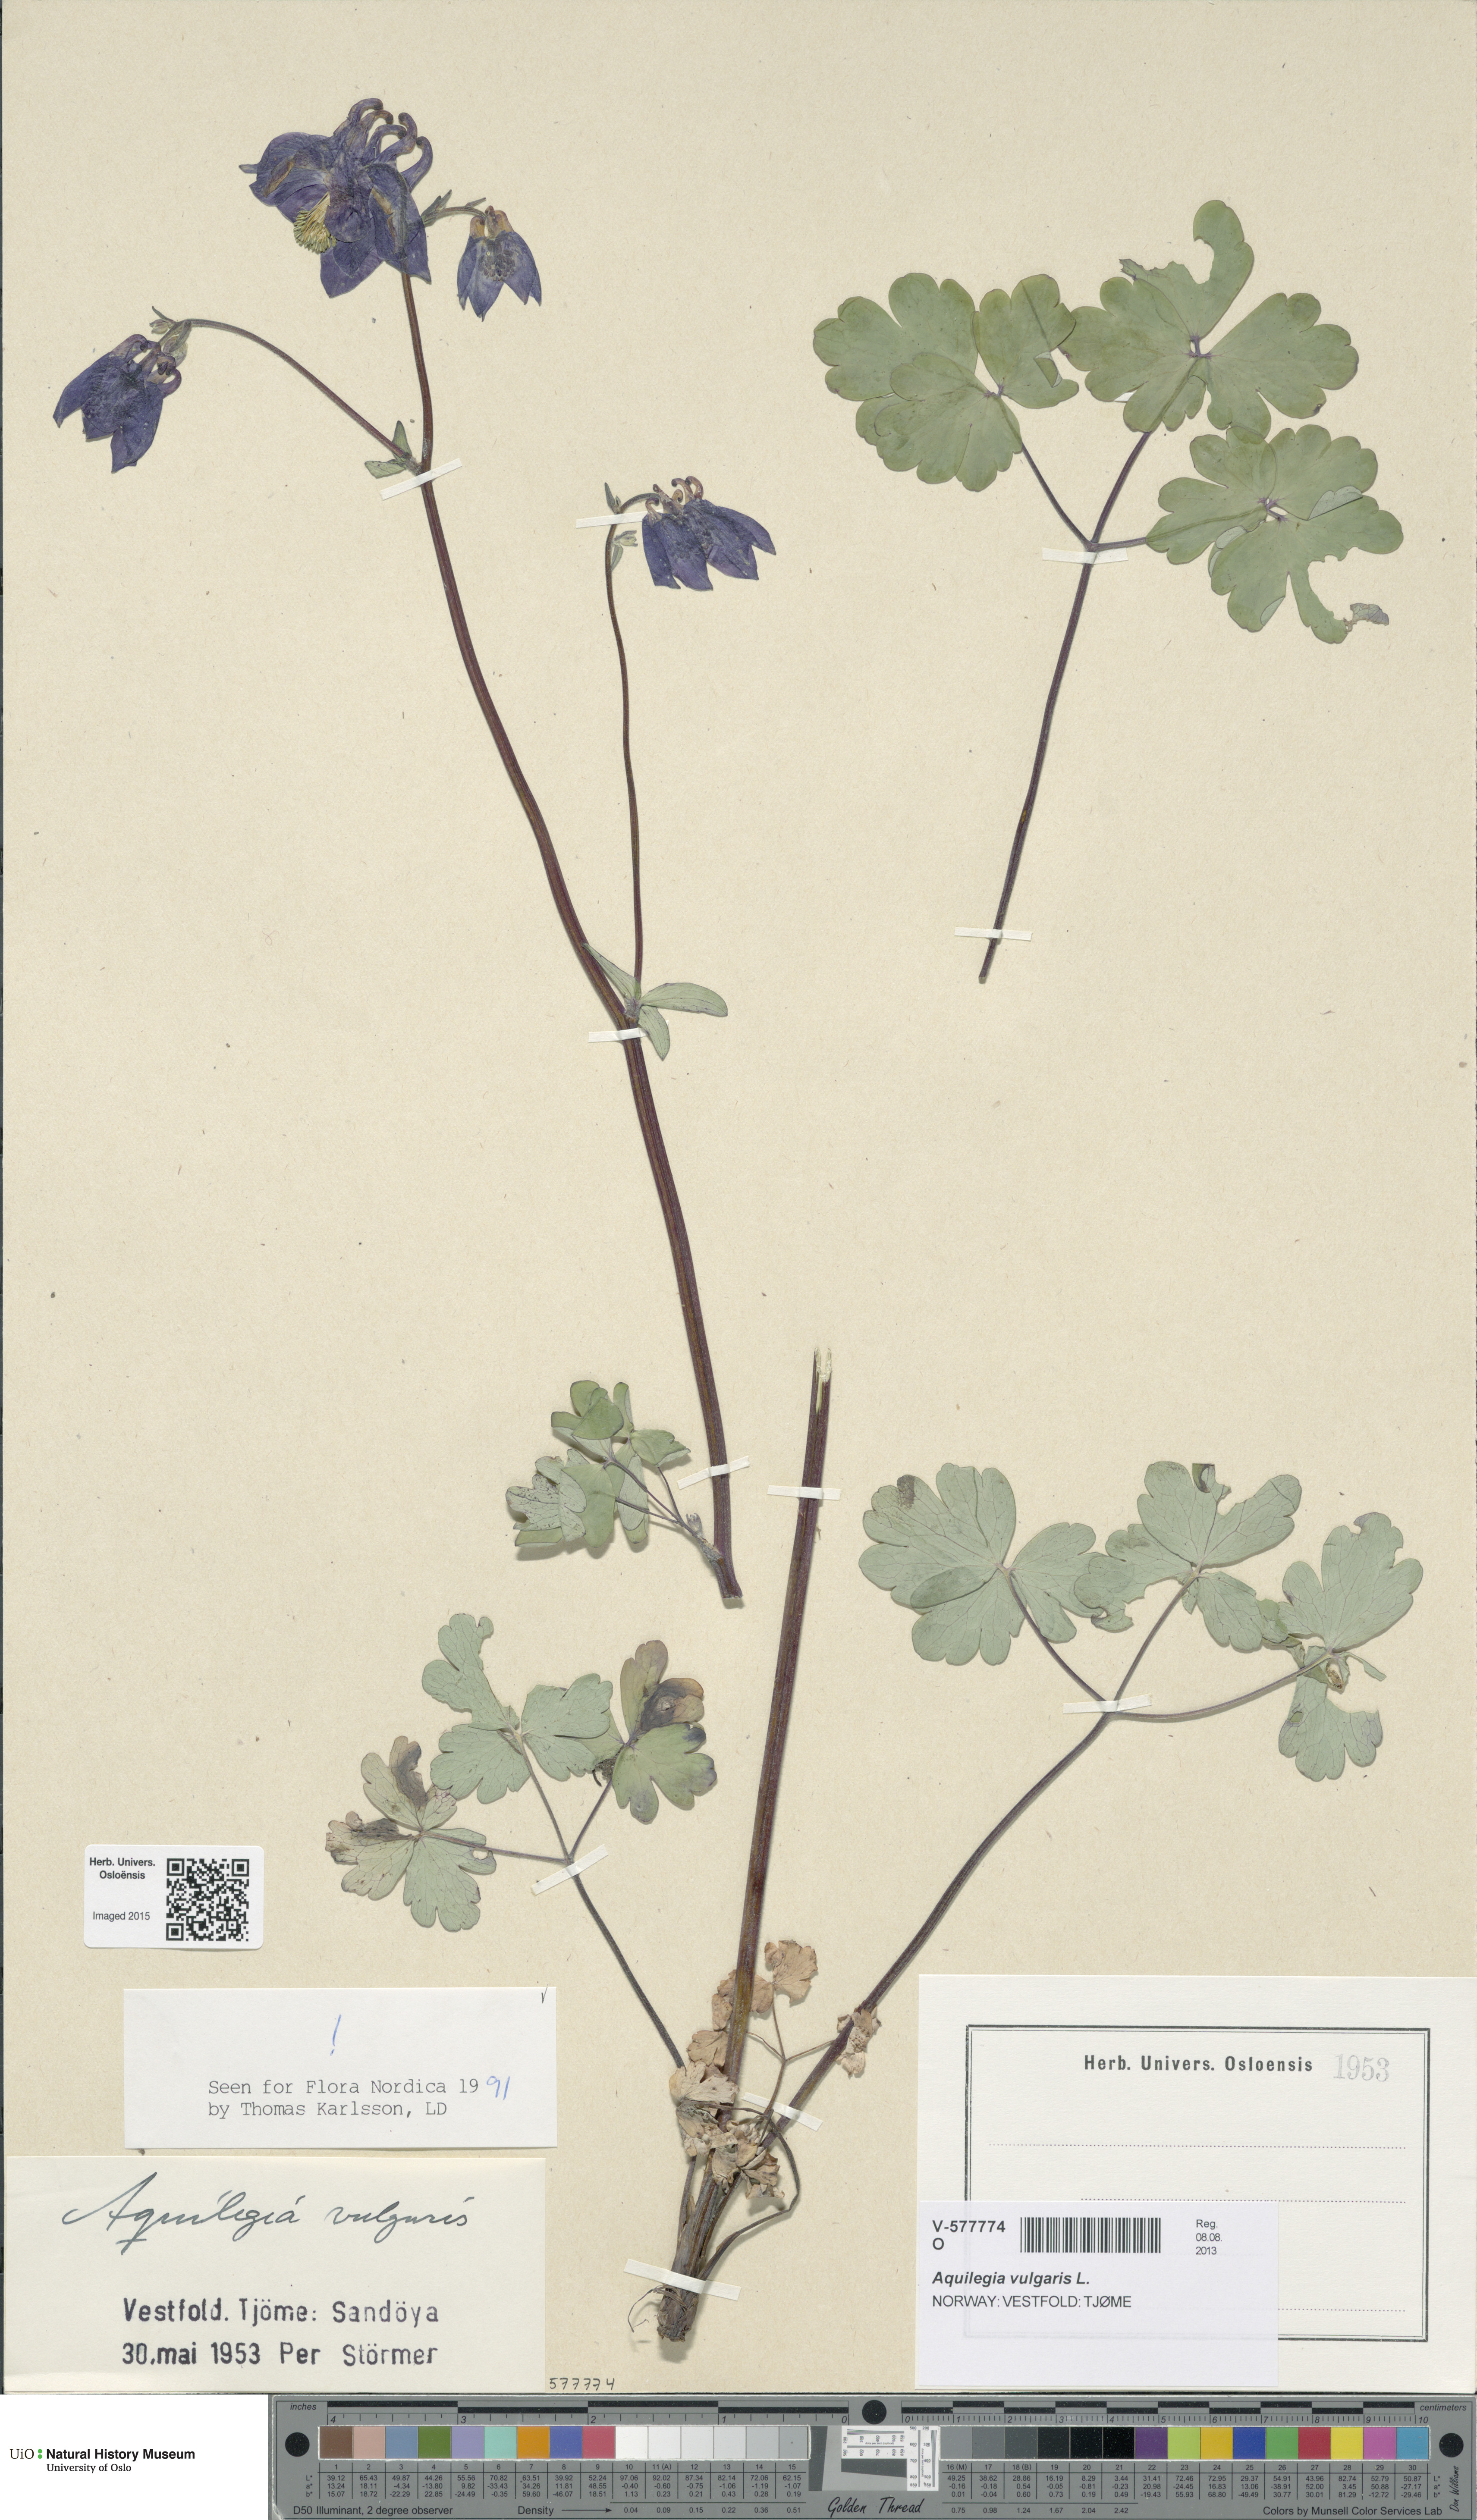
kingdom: Plantae
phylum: Tracheophyta
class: Magnoliopsida
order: Ranunculales
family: Ranunculaceae
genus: Aquilegia
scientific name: Aquilegia vulgaris
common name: Columbine
